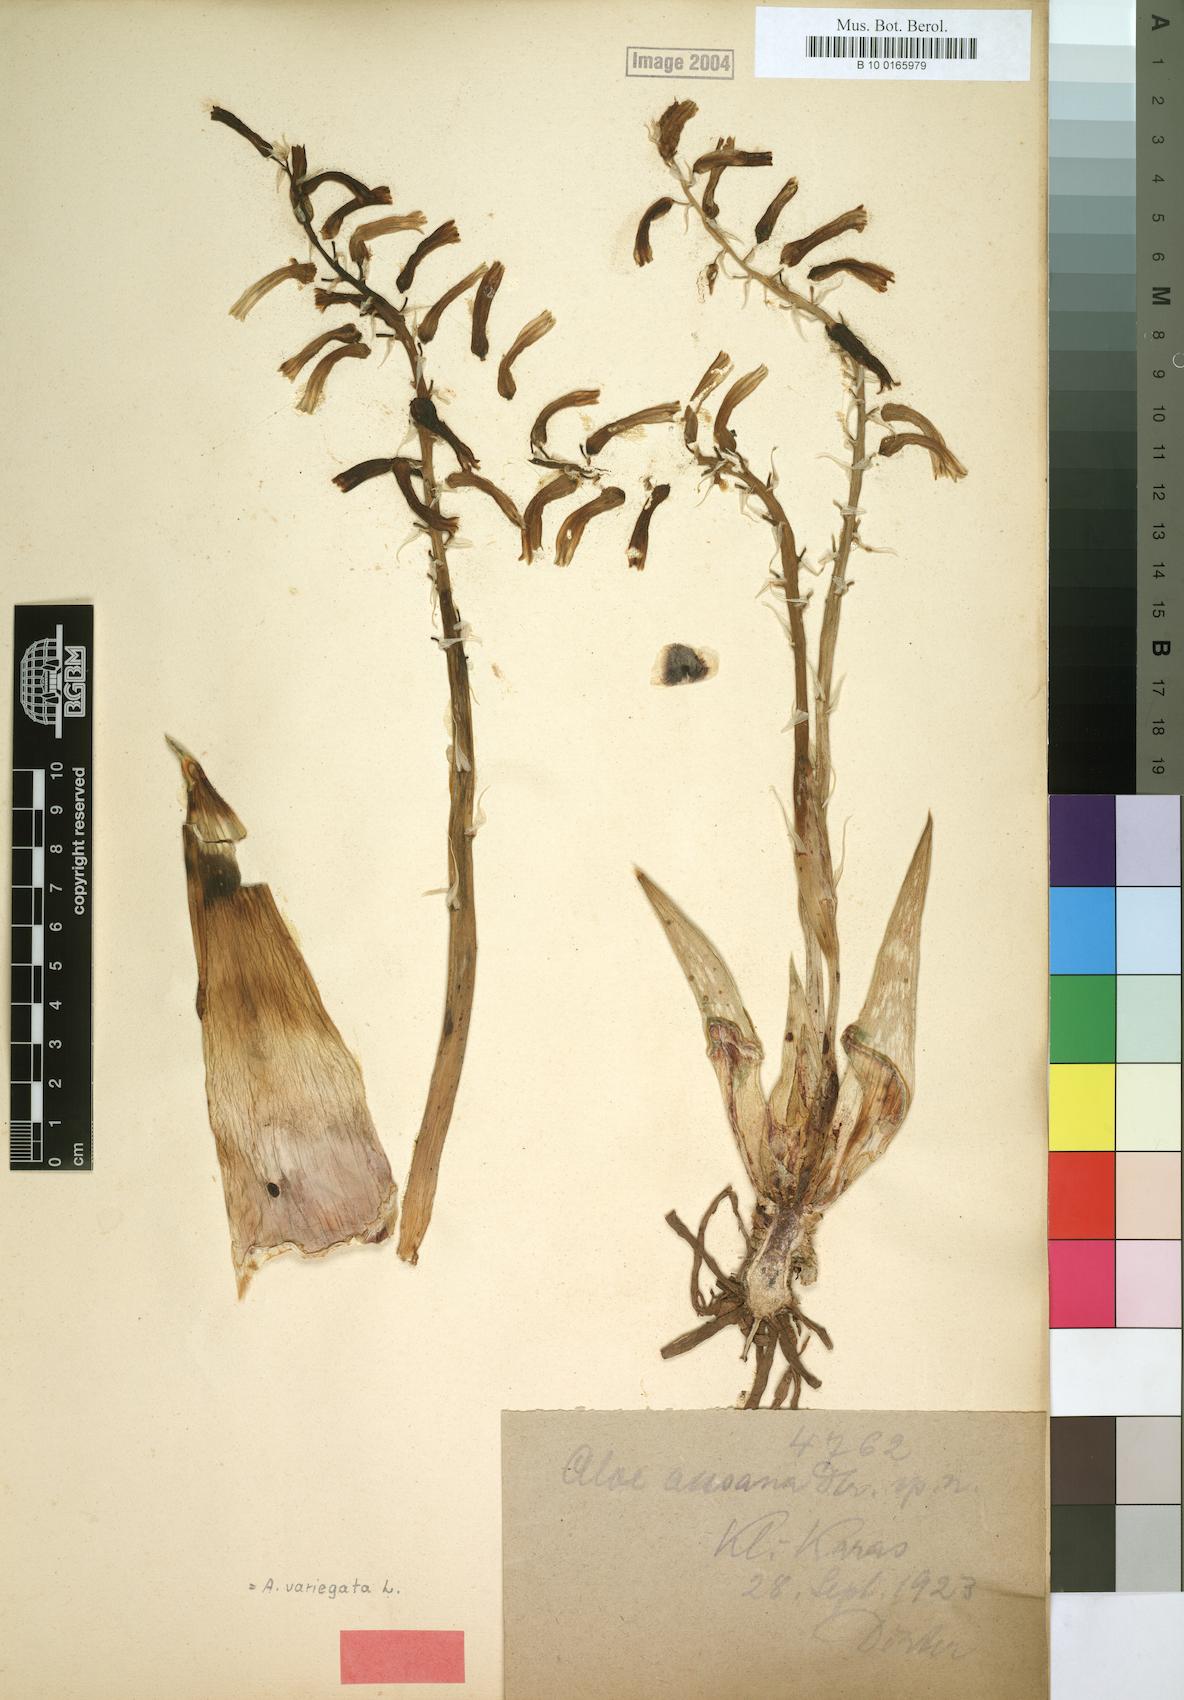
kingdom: Plantae
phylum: Tracheophyta
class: Liliopsida
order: Asparagales
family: Asphodelaceae
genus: Gonialoe
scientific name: Gonialoe variegata
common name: Aloe variegata
